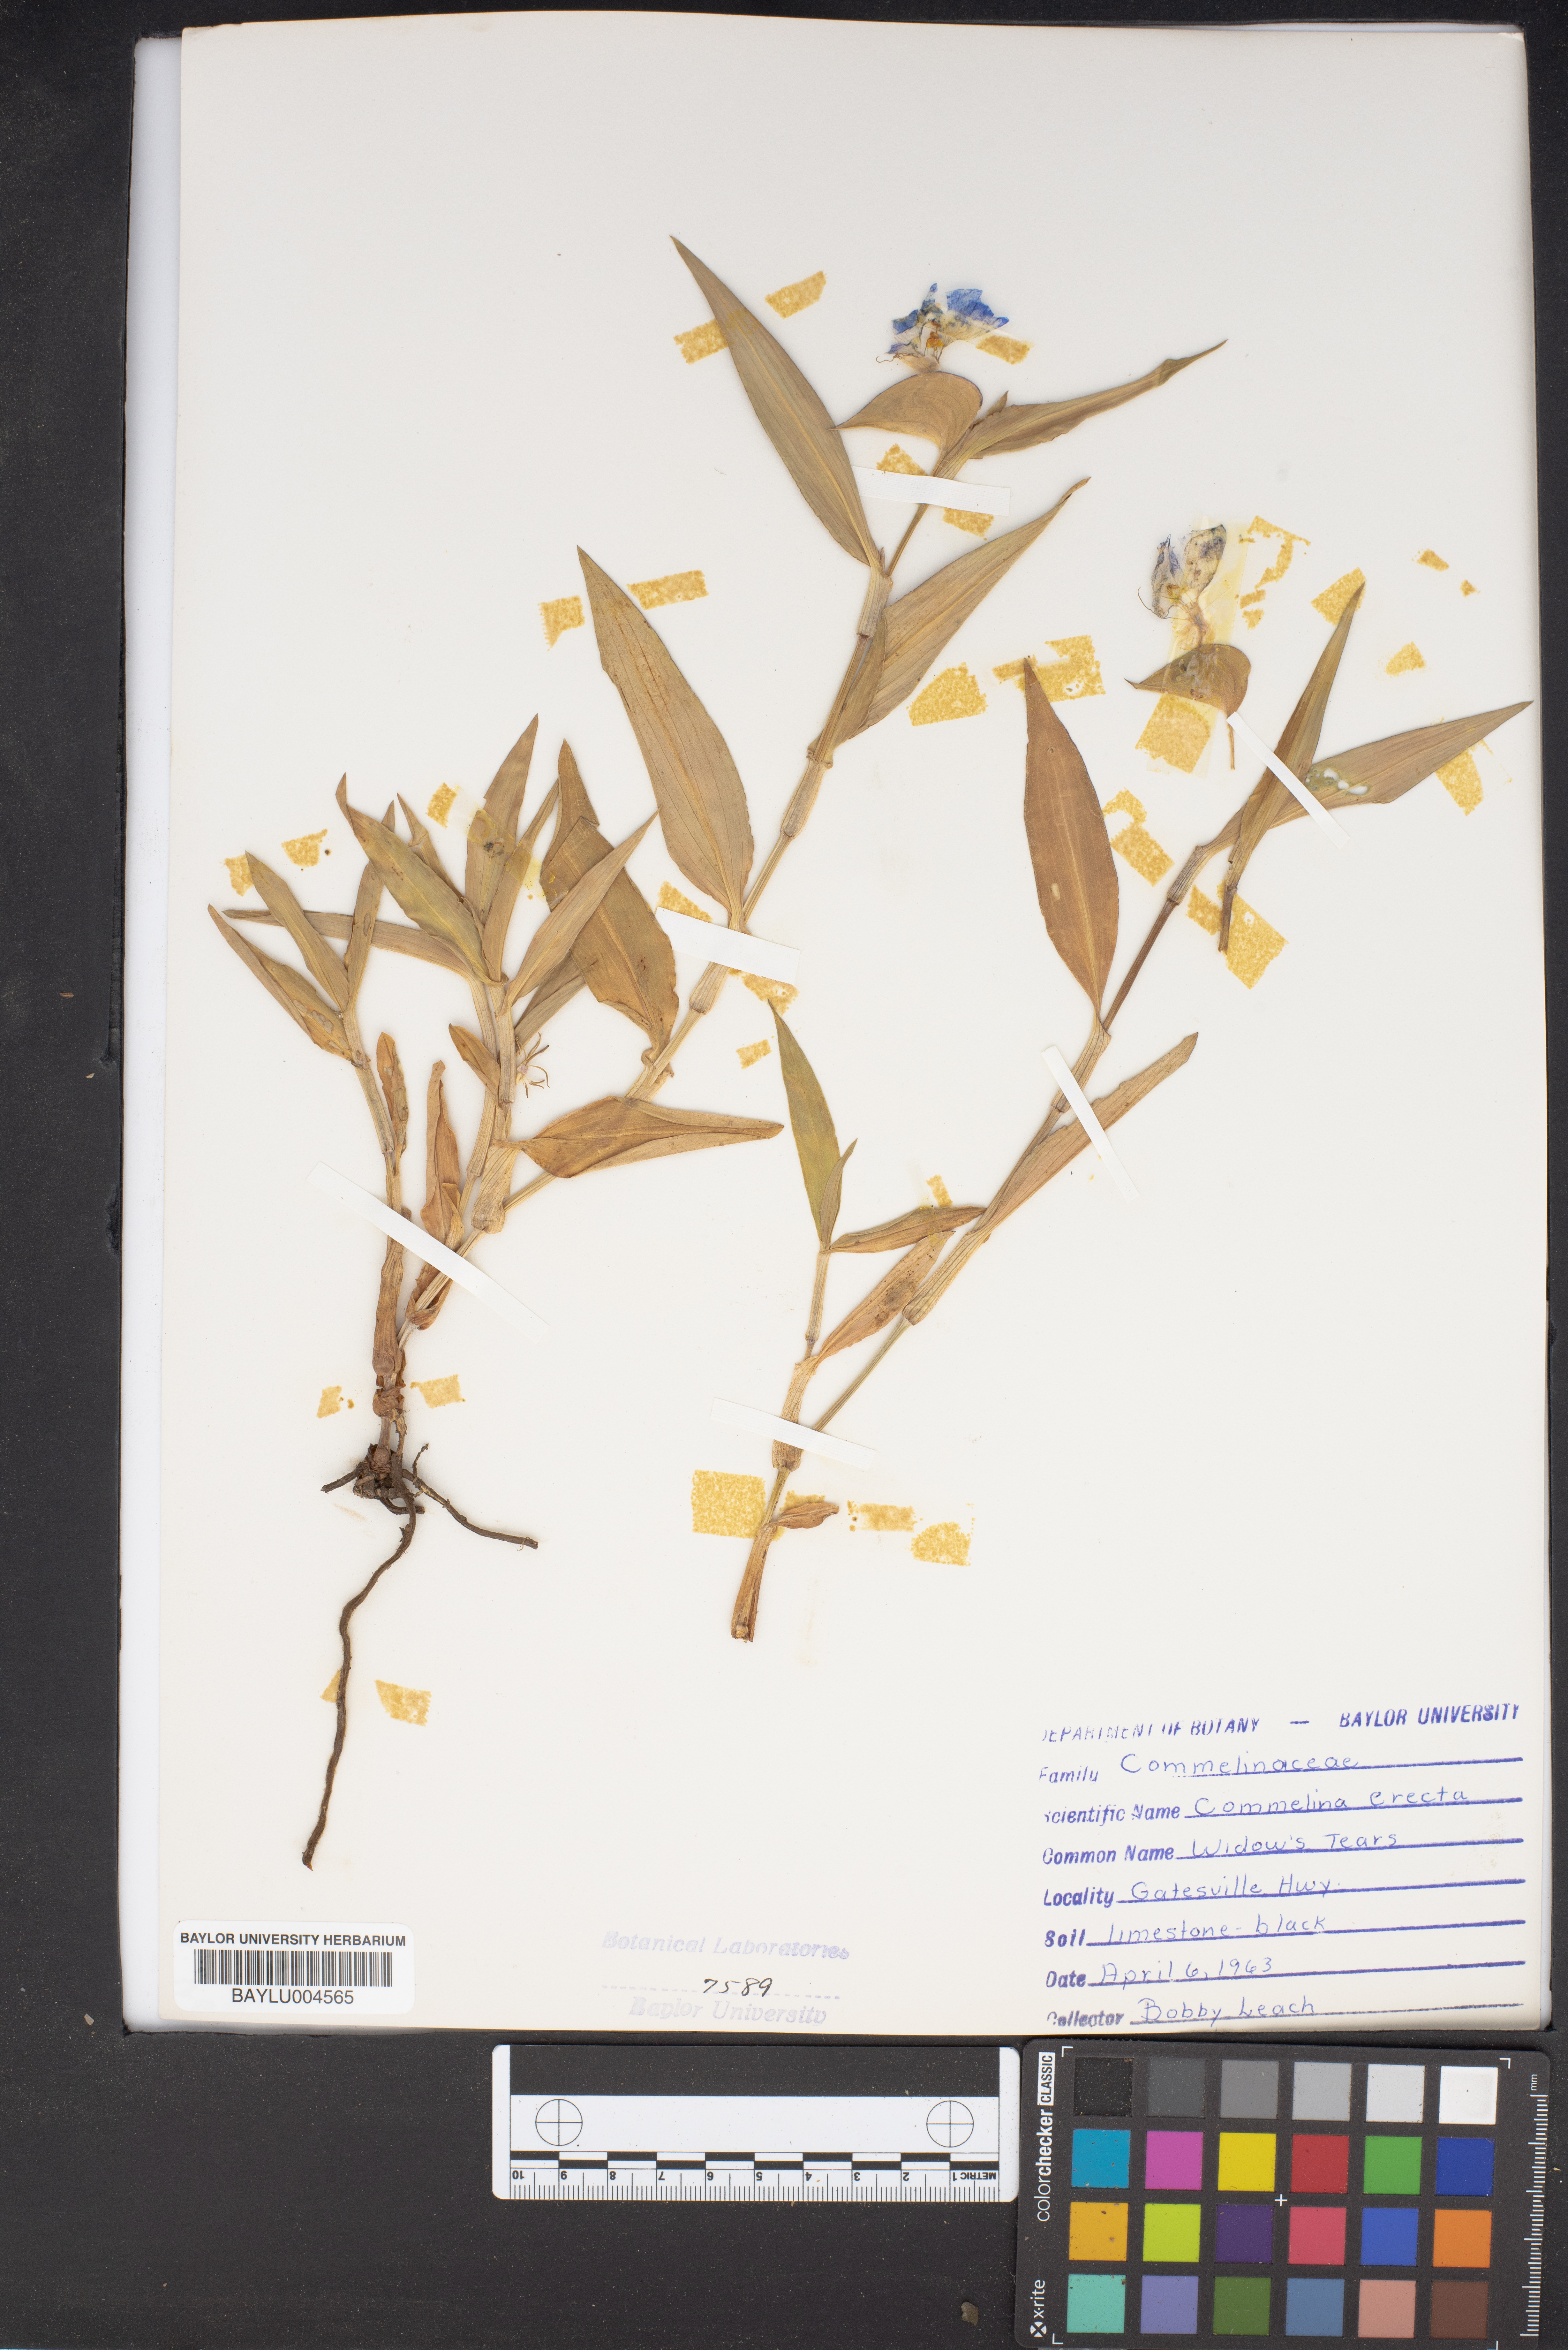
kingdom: Plantae
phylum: Tracheophyta
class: Liliopsida
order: Commelinales
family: Commelinaceae
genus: Commelina
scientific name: Commelina erecta
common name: Blousel blommetjie
